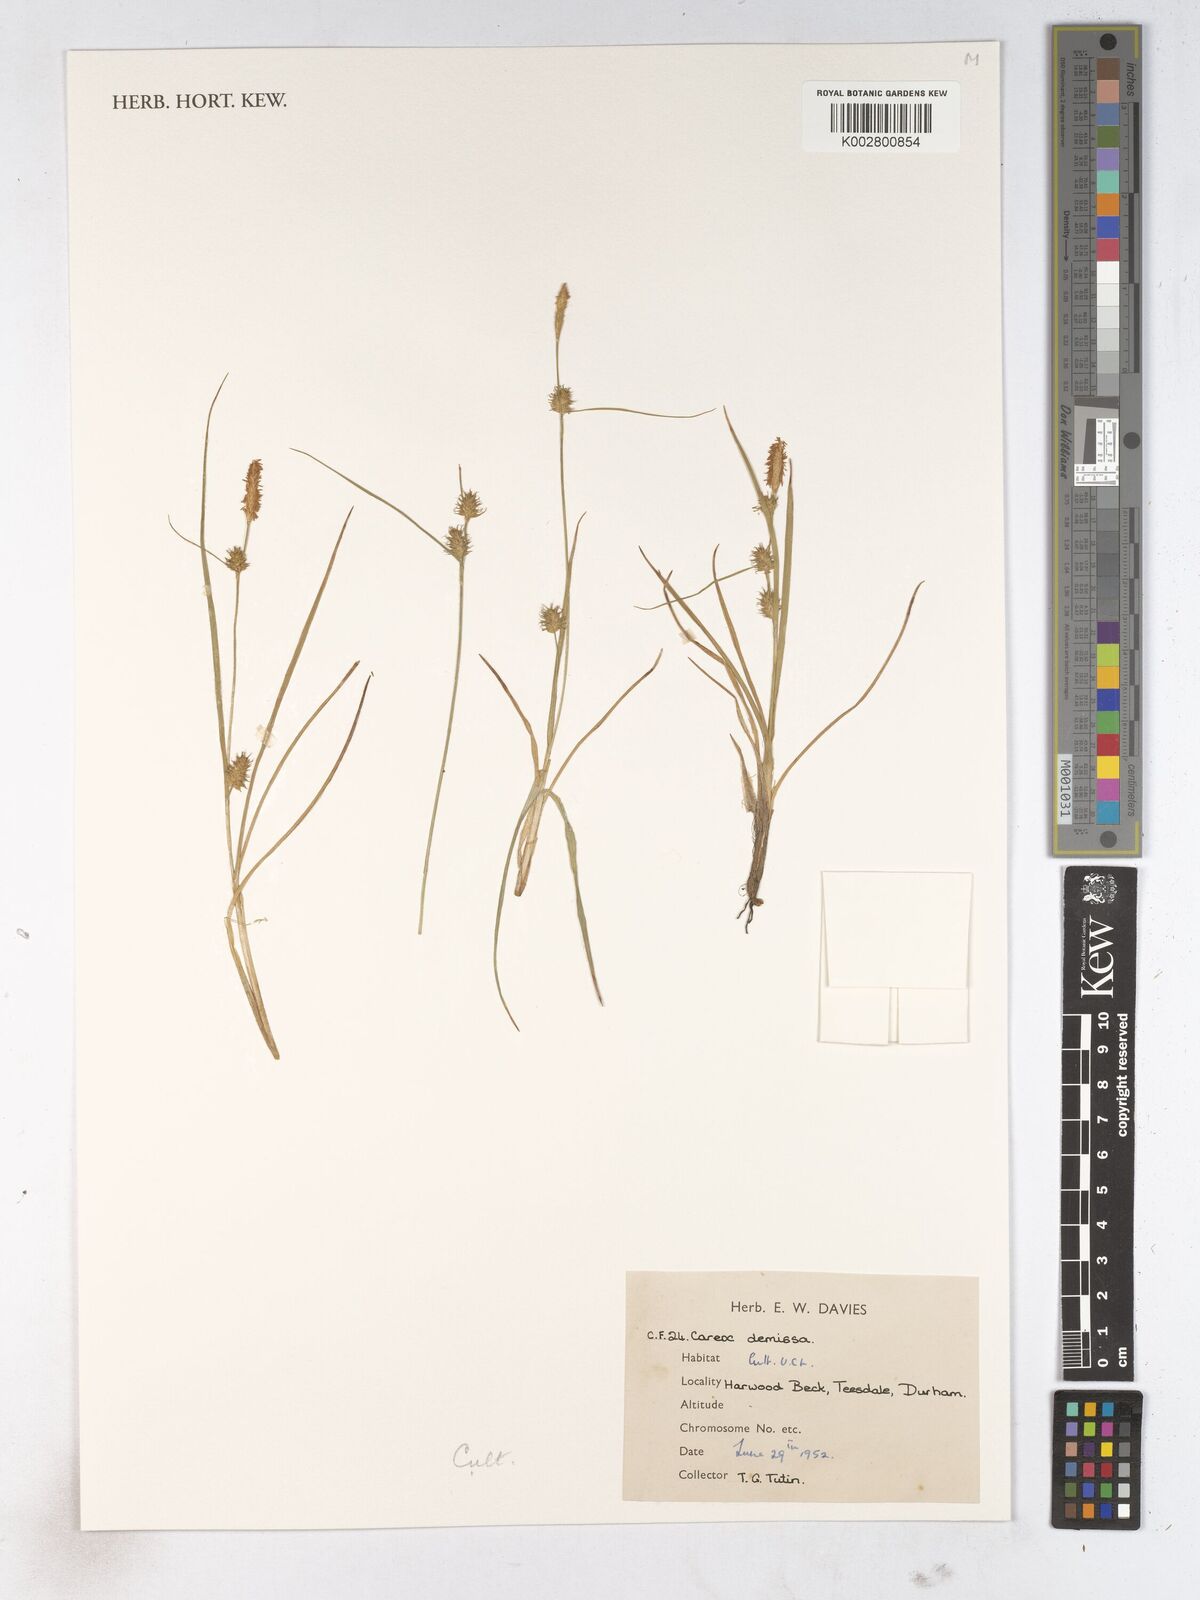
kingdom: Plantae
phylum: Tracheophyta
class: Liliopsida
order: Poales
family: Cyperaceae
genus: Carex
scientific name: Carex demissa
